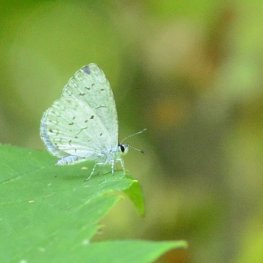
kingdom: Animalia
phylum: Arthropoda
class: Insecta
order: Lepidoptera
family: Lycaenidae
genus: Cyaniris
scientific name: Cyaniris neglecta
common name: Summer Azure
